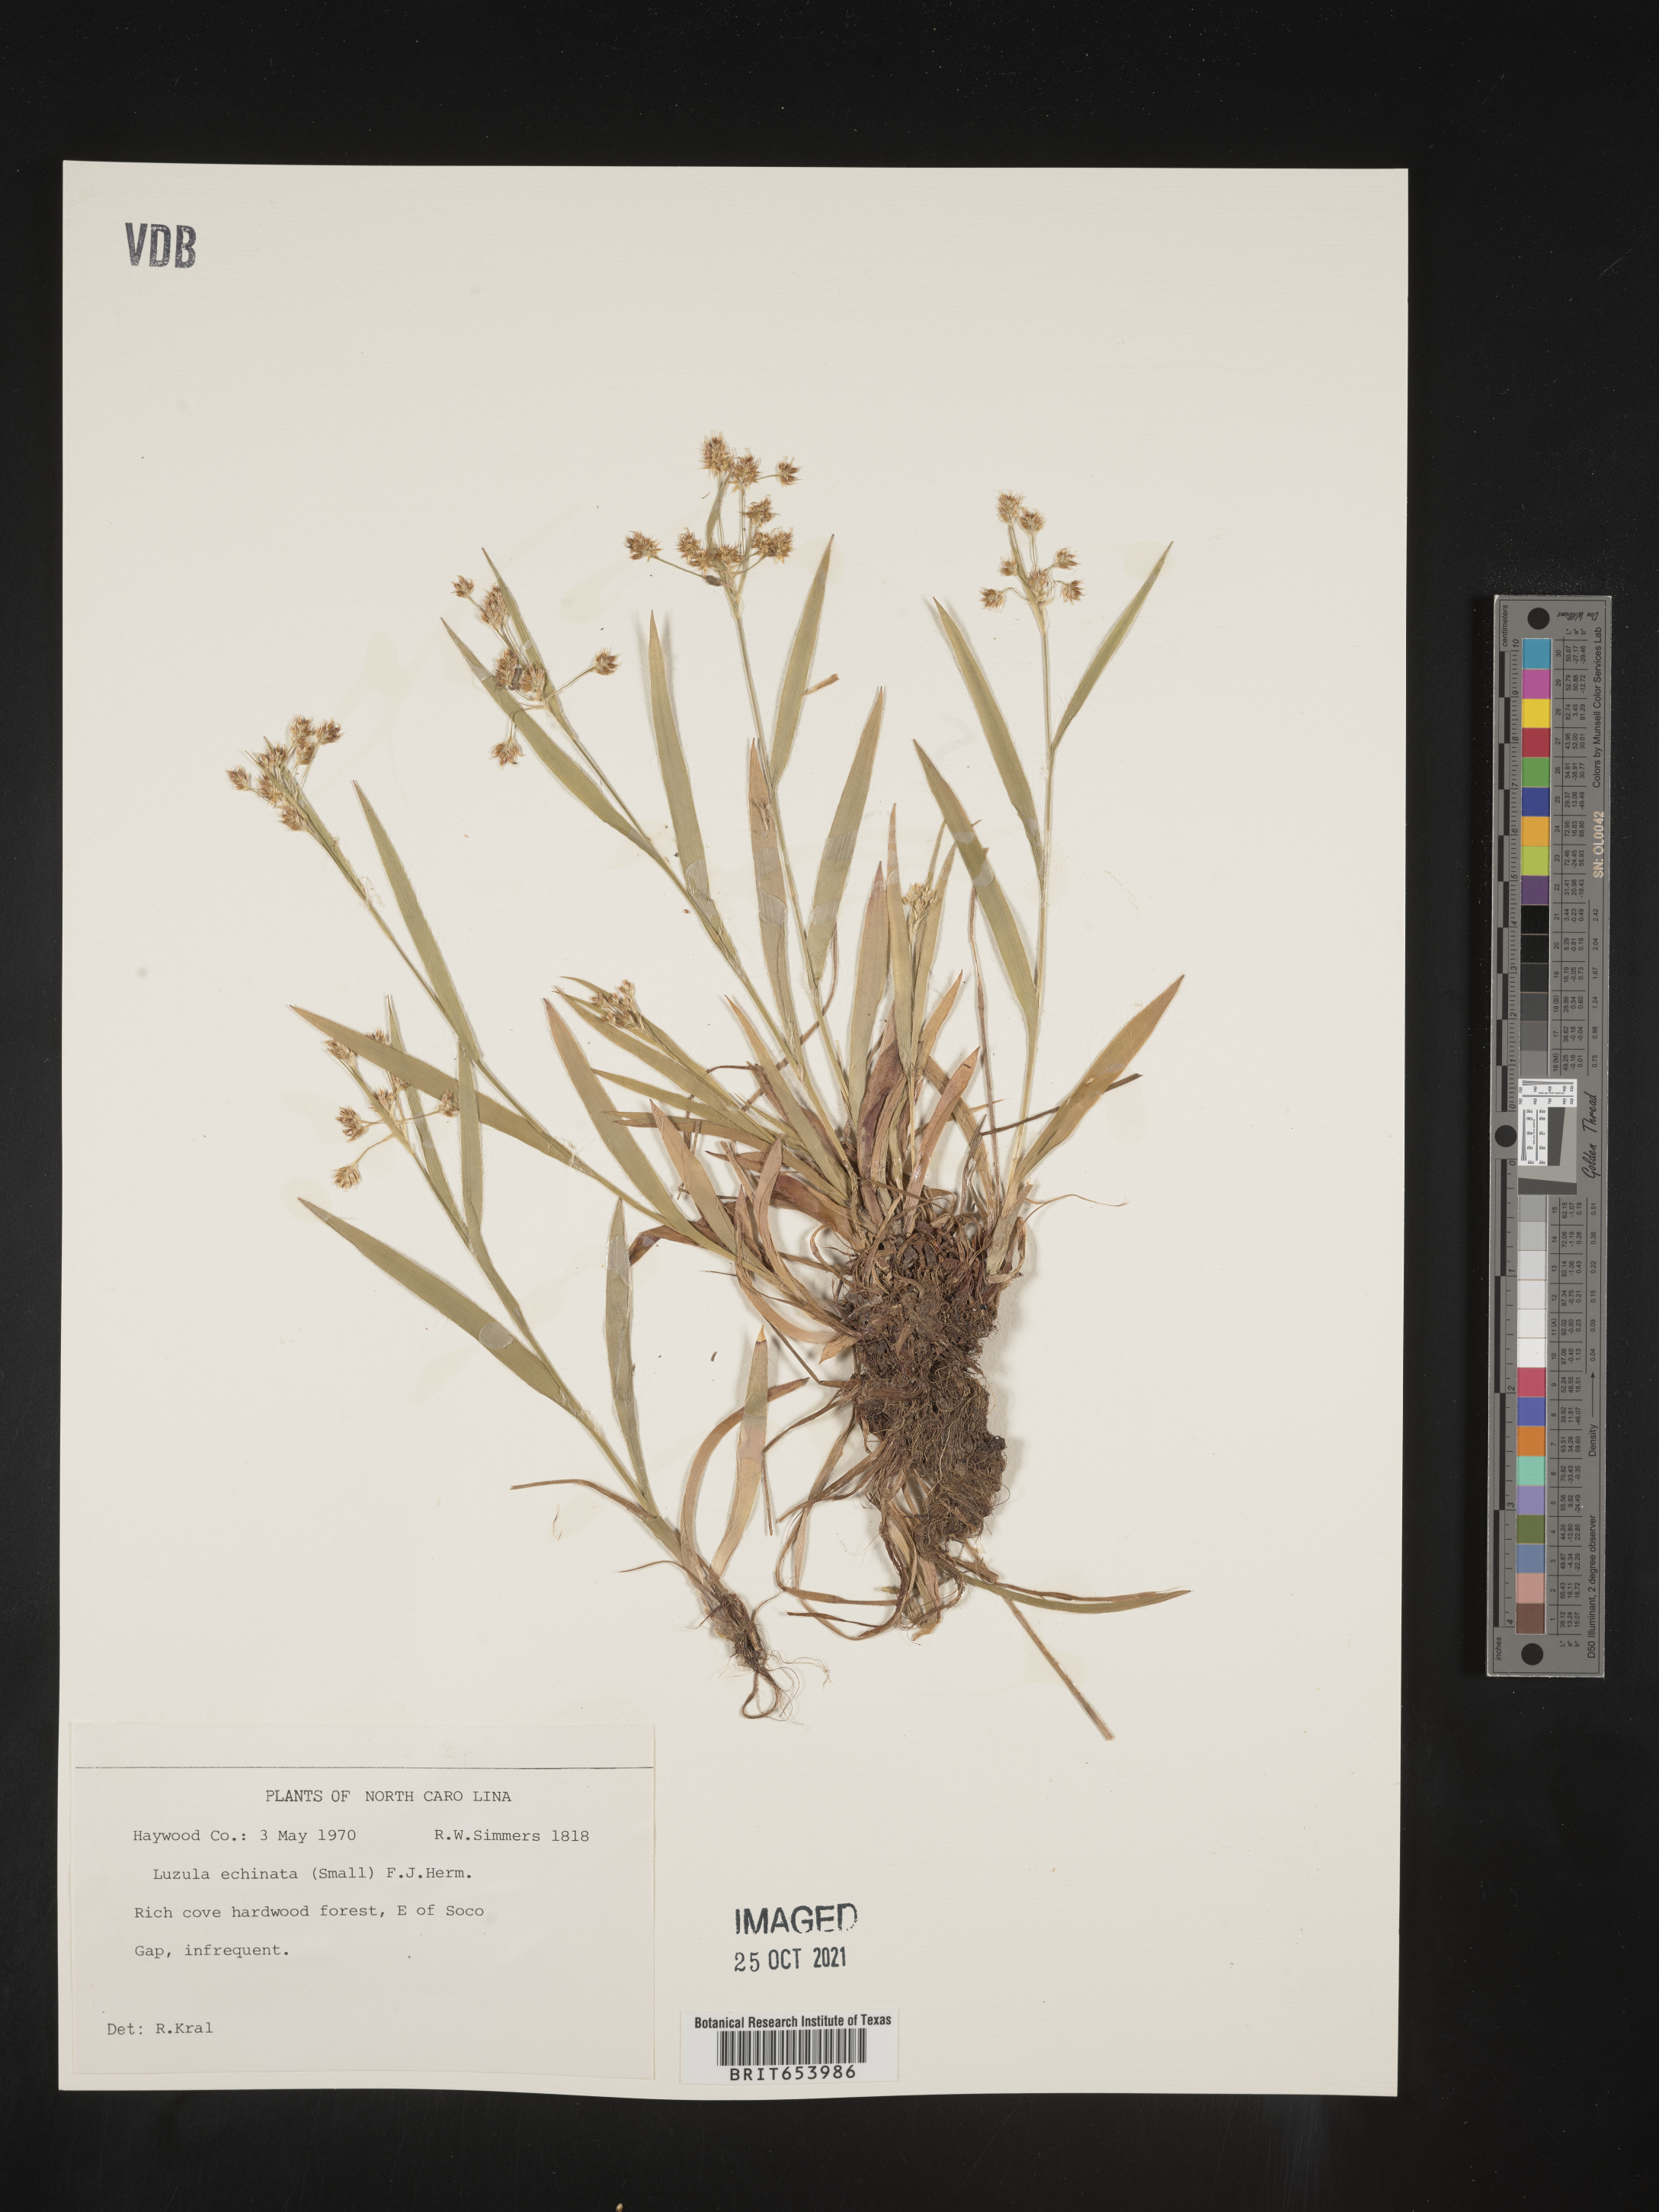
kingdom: Plantae
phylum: Tracheophyta
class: Liliopsida
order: Poales
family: Juncaceae
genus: Luzula
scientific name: Luzula echinata
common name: Hedgehog woodrush
